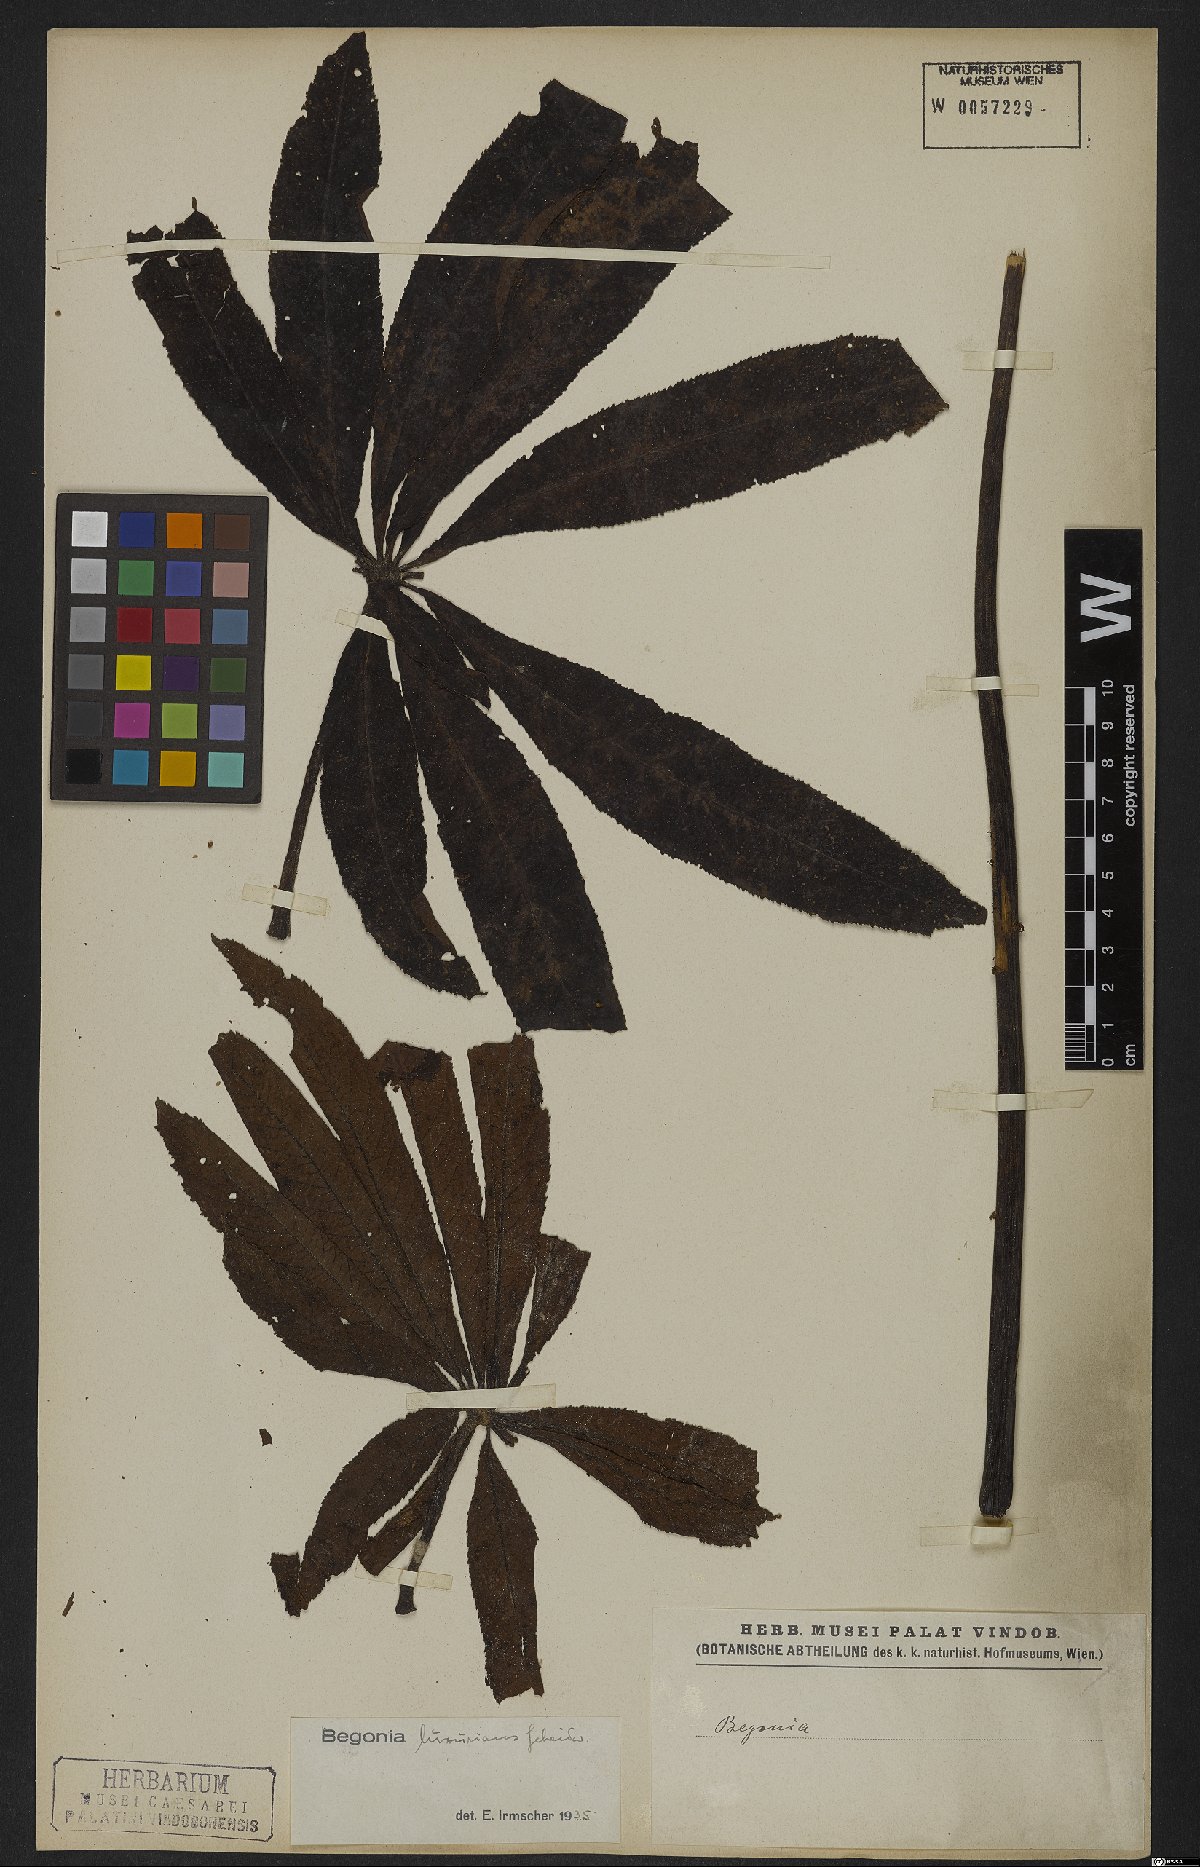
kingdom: Plantae
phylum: Tracheophyta
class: Magnoliopsida
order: Cucurbitales
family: Begoniaceae
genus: Begonia
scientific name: Begonia luxurians
